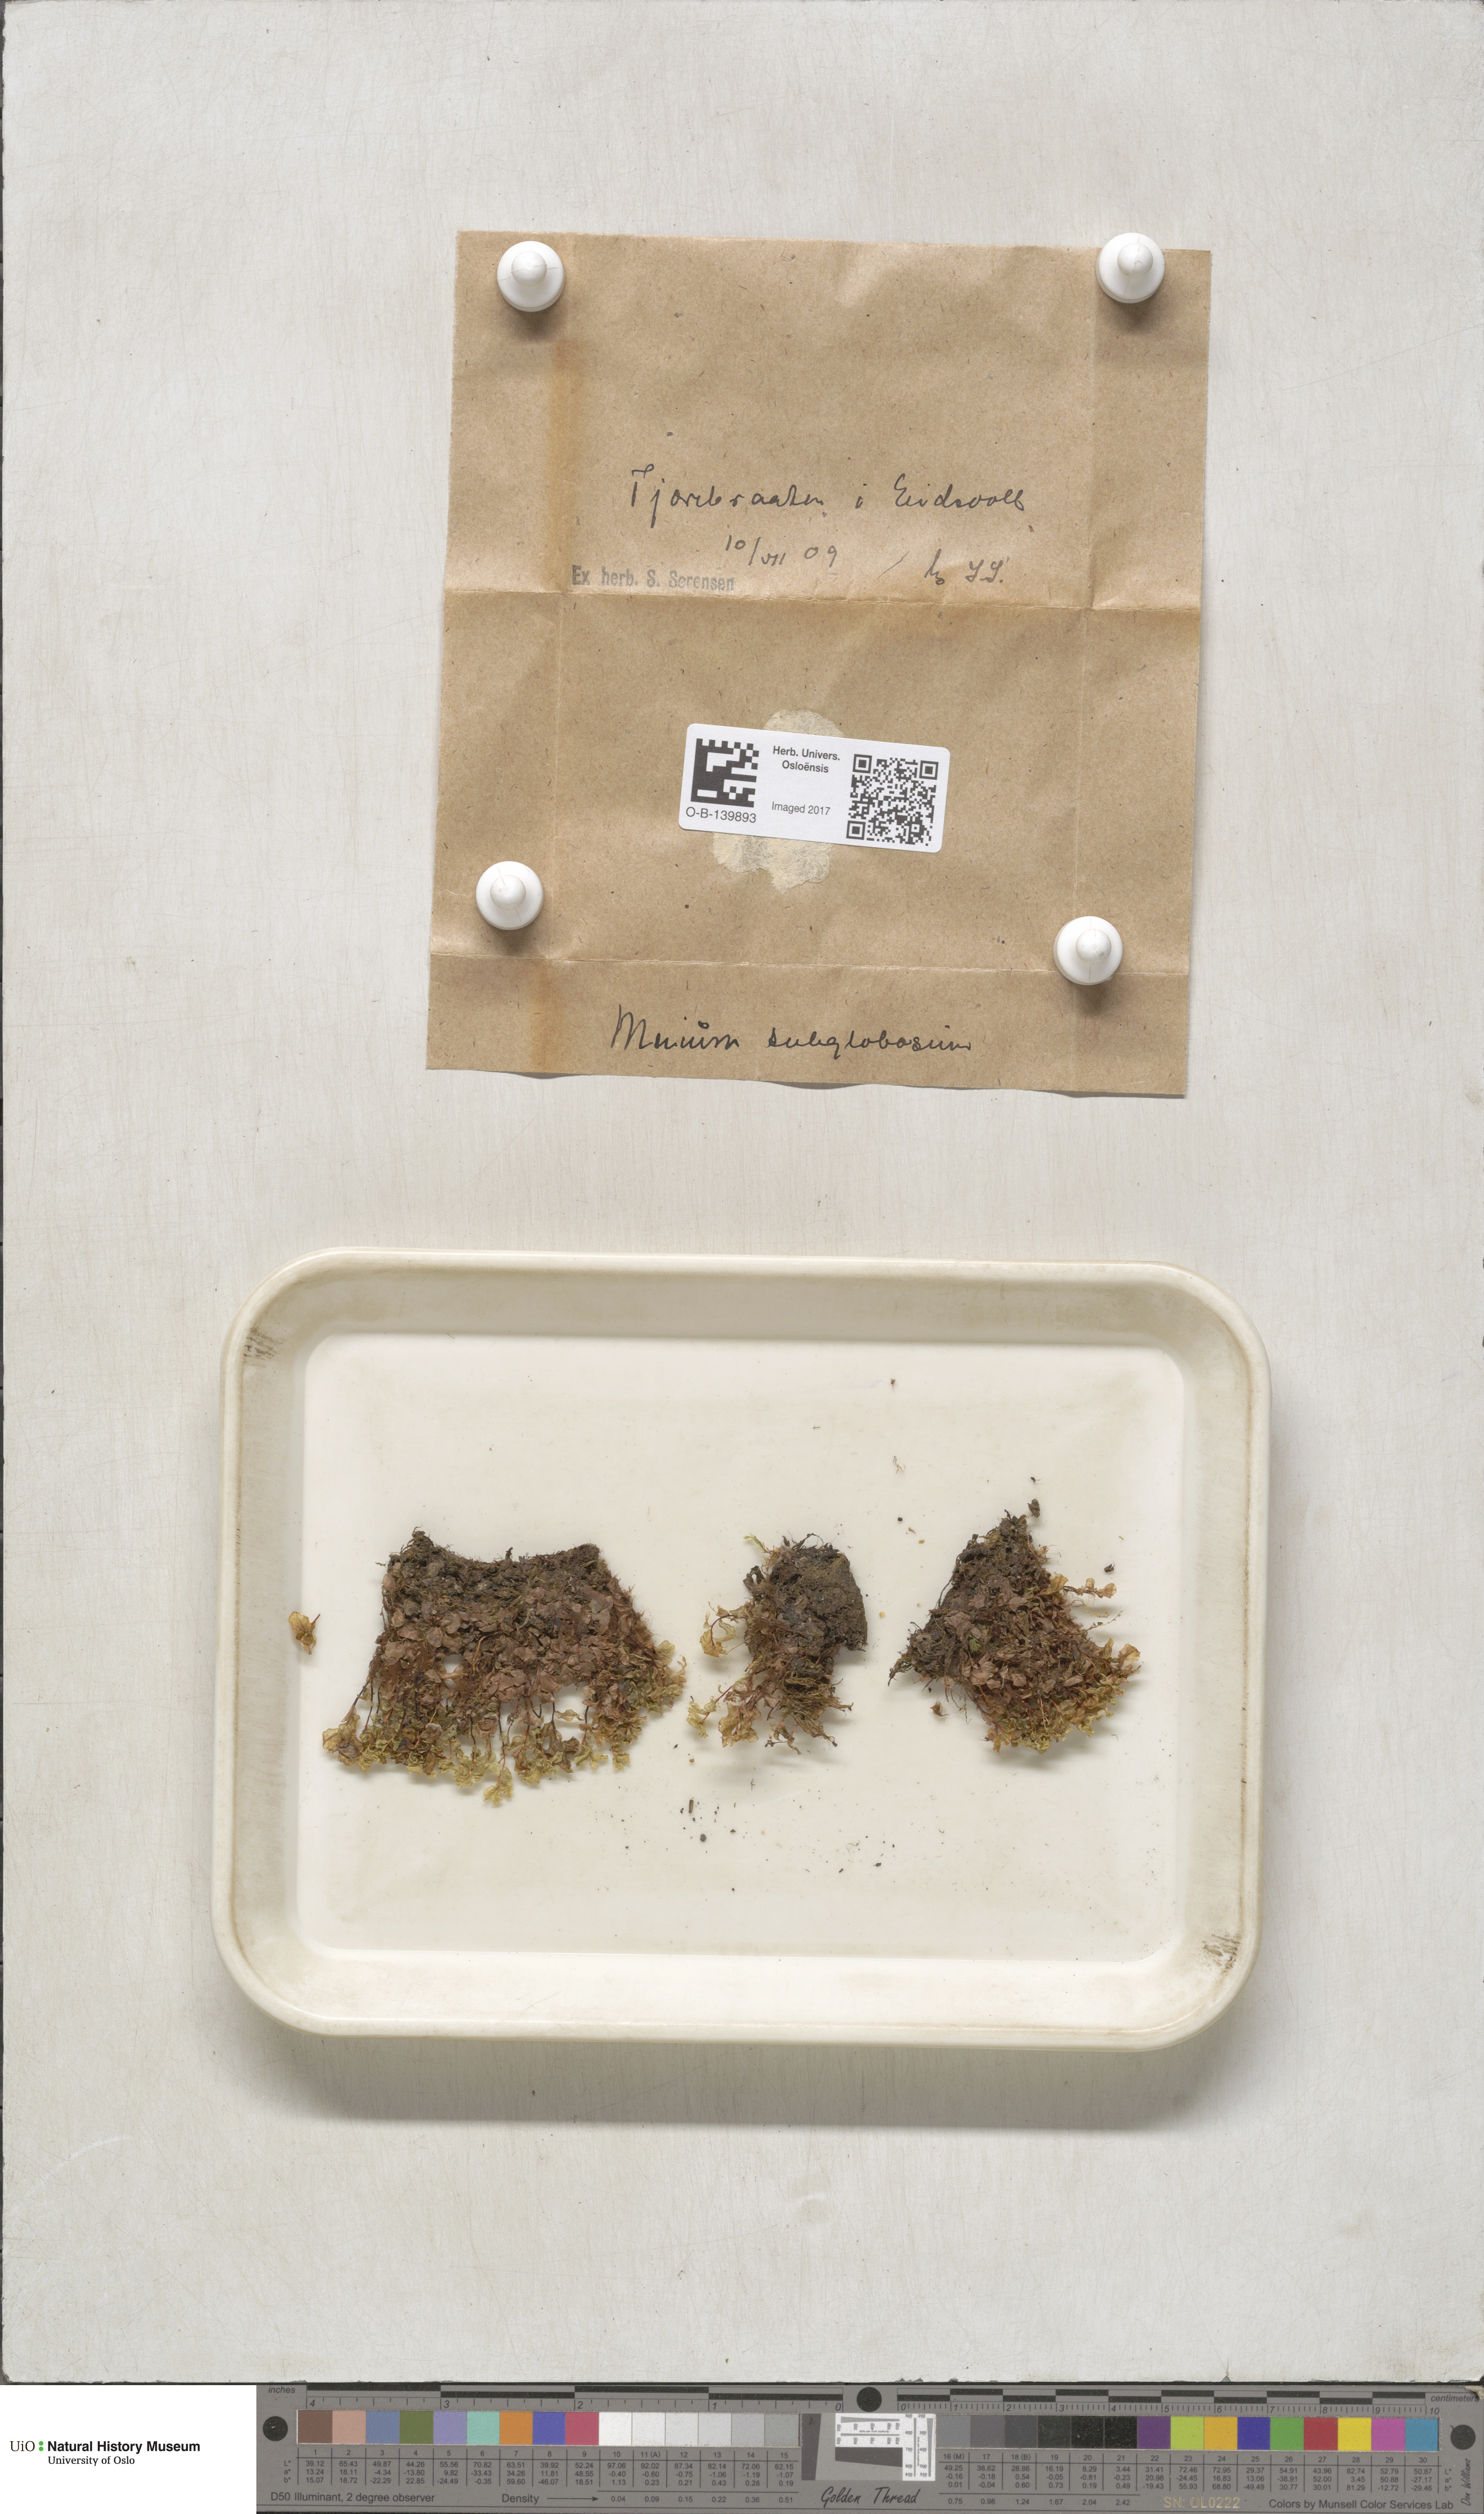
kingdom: Plantae
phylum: Bryophyta
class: Bryopsida
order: Bryales
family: Mniaceae
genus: Rhizomnium
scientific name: Rhizomnium pseudopunctatum
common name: Felted leafy moss
